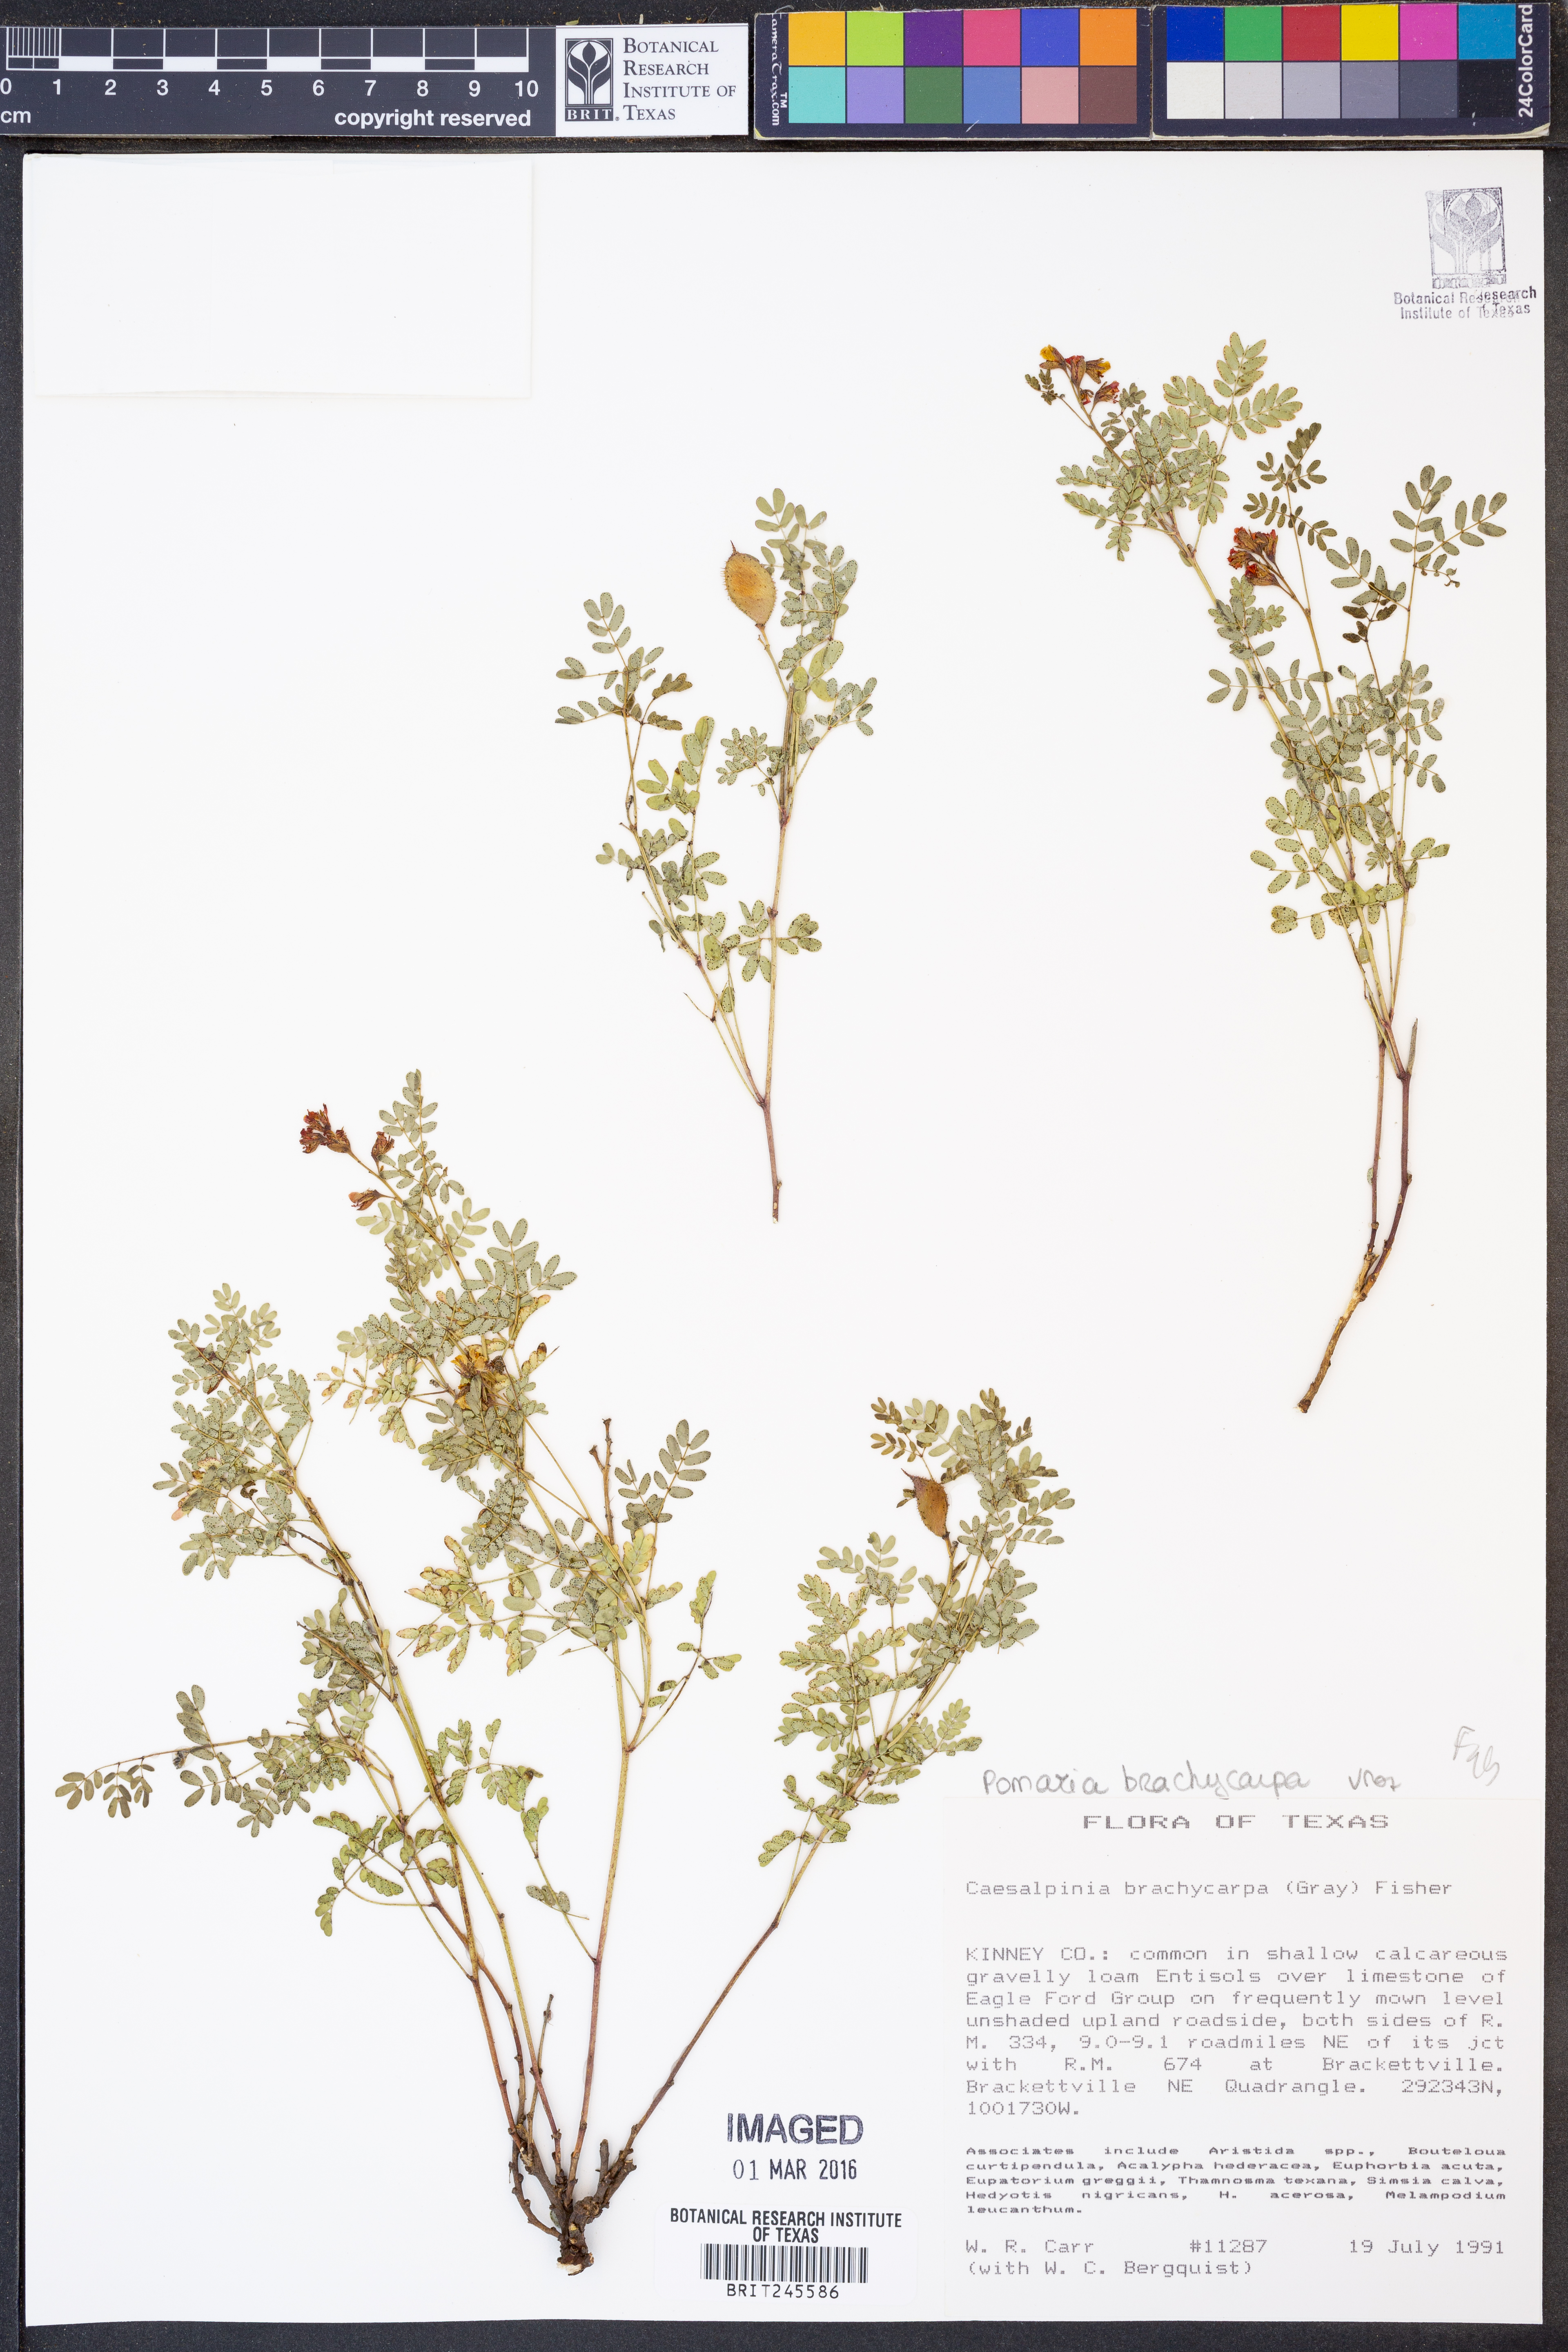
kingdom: Plantae
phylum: Tracheophyta
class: Magnoliopsida
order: Fabales
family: Fabaceae
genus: Pomaria
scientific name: Pomaria brachycarpa
